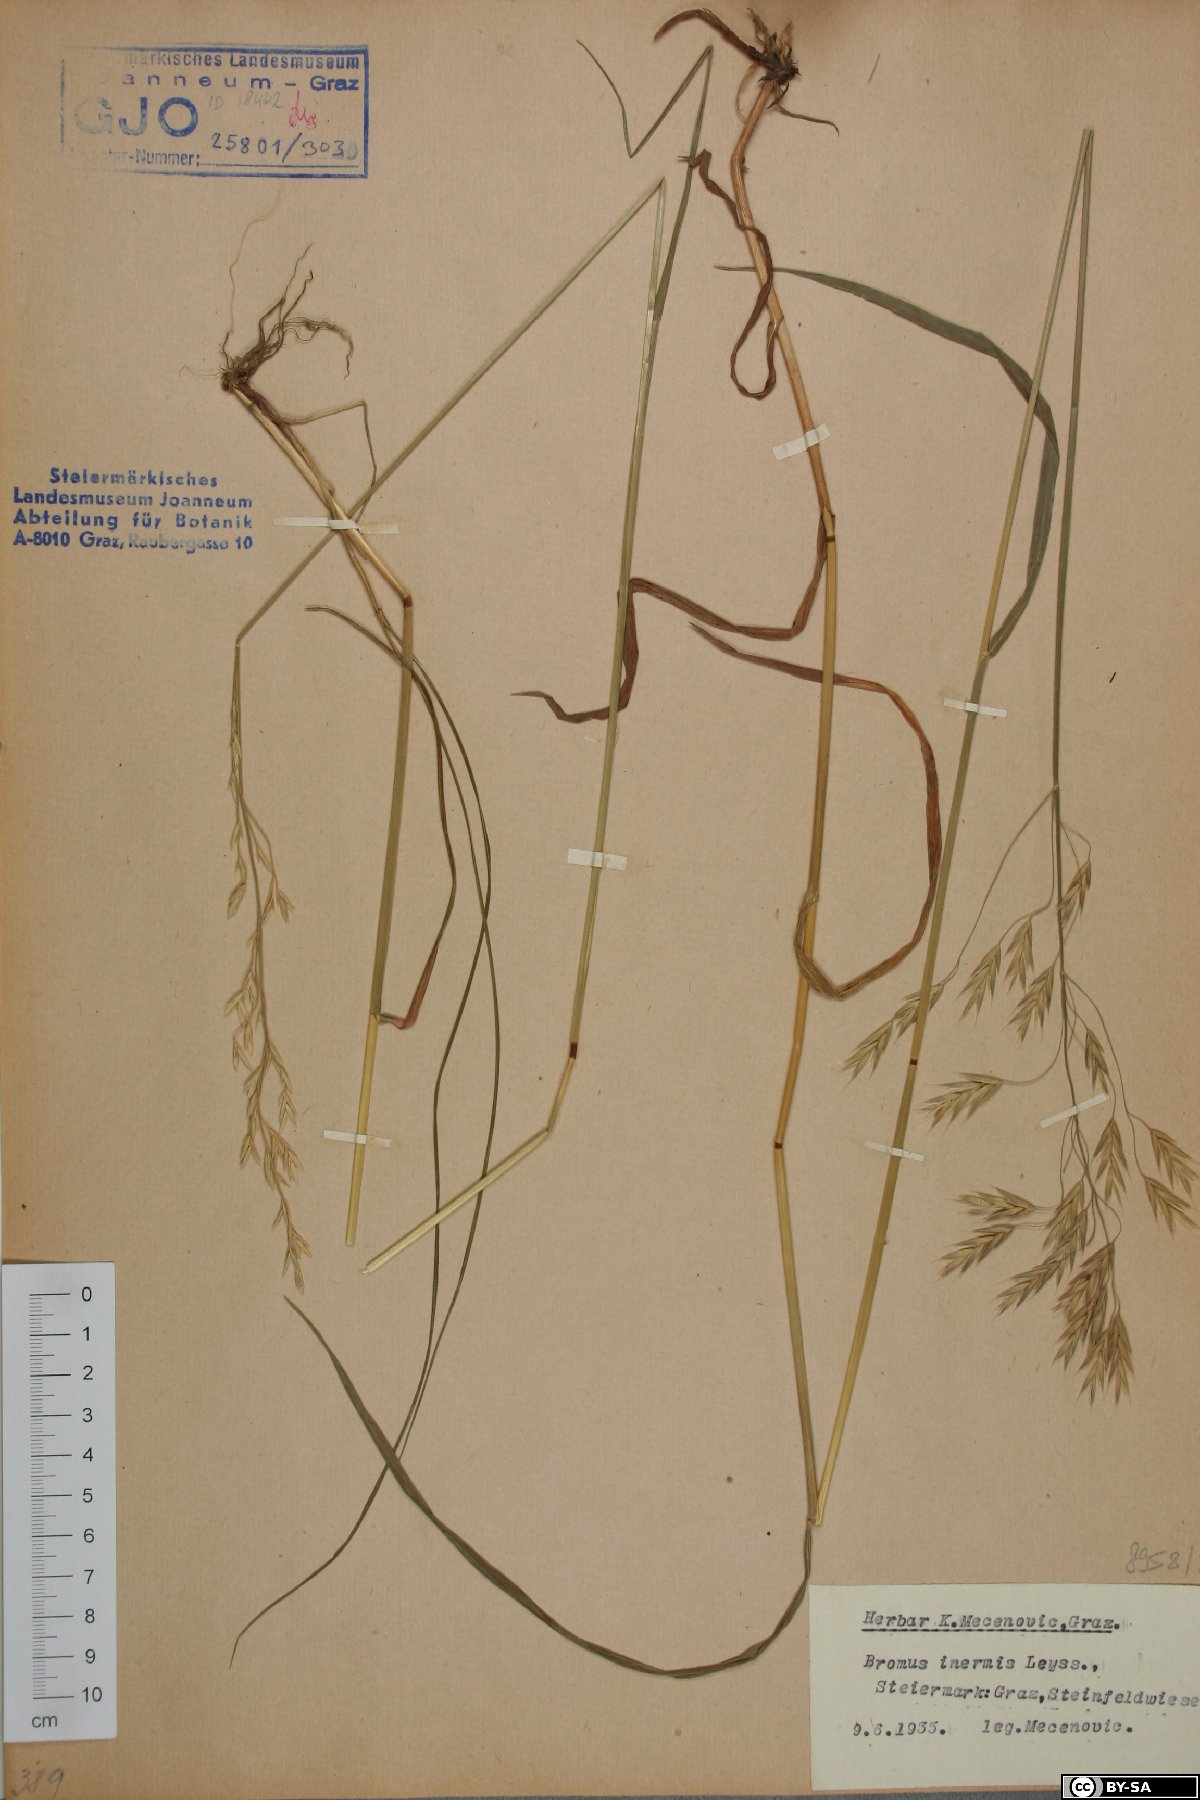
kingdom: Plantae
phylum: Tracheophyta
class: Liliopsida
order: Poales
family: Poaceae
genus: Bromus
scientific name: Bromus inermis
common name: Smooth brome
